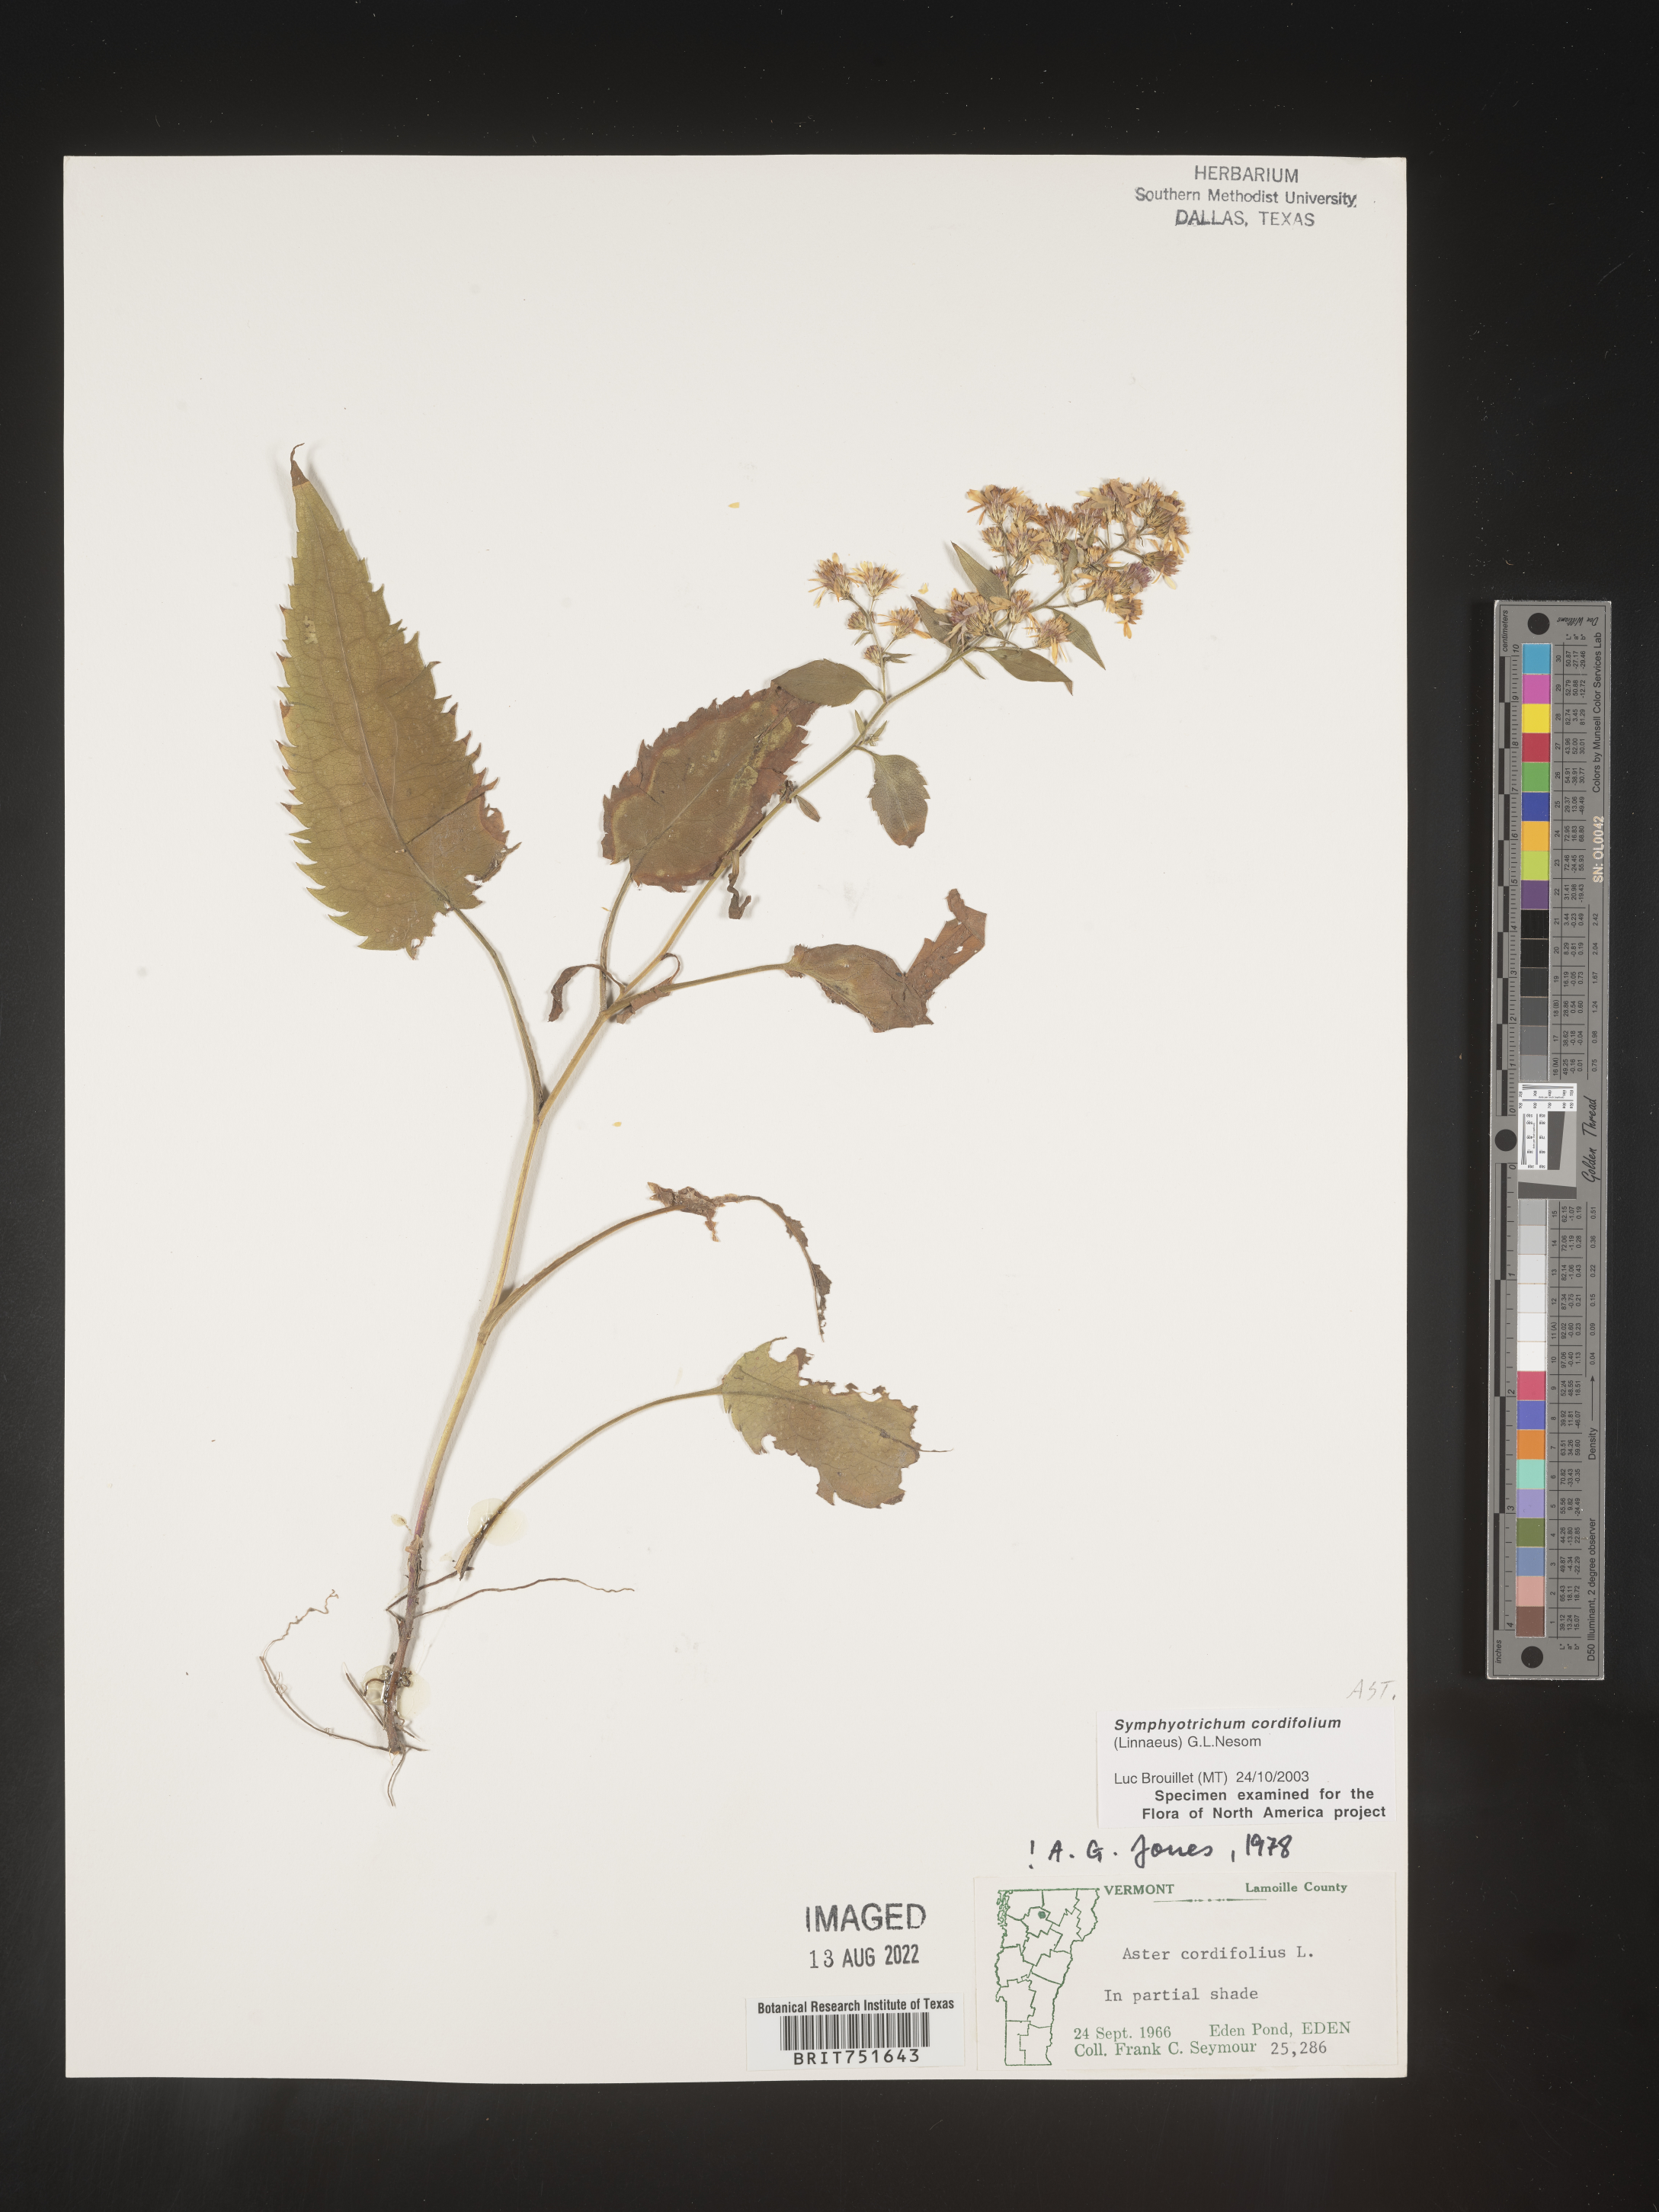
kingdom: Plantae
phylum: Tracheophyta
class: Magnoliopsida
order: Asterales
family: Asteraceae
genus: Symphyotrichum
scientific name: Symphyotrichum cordifolium
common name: Beeweed
